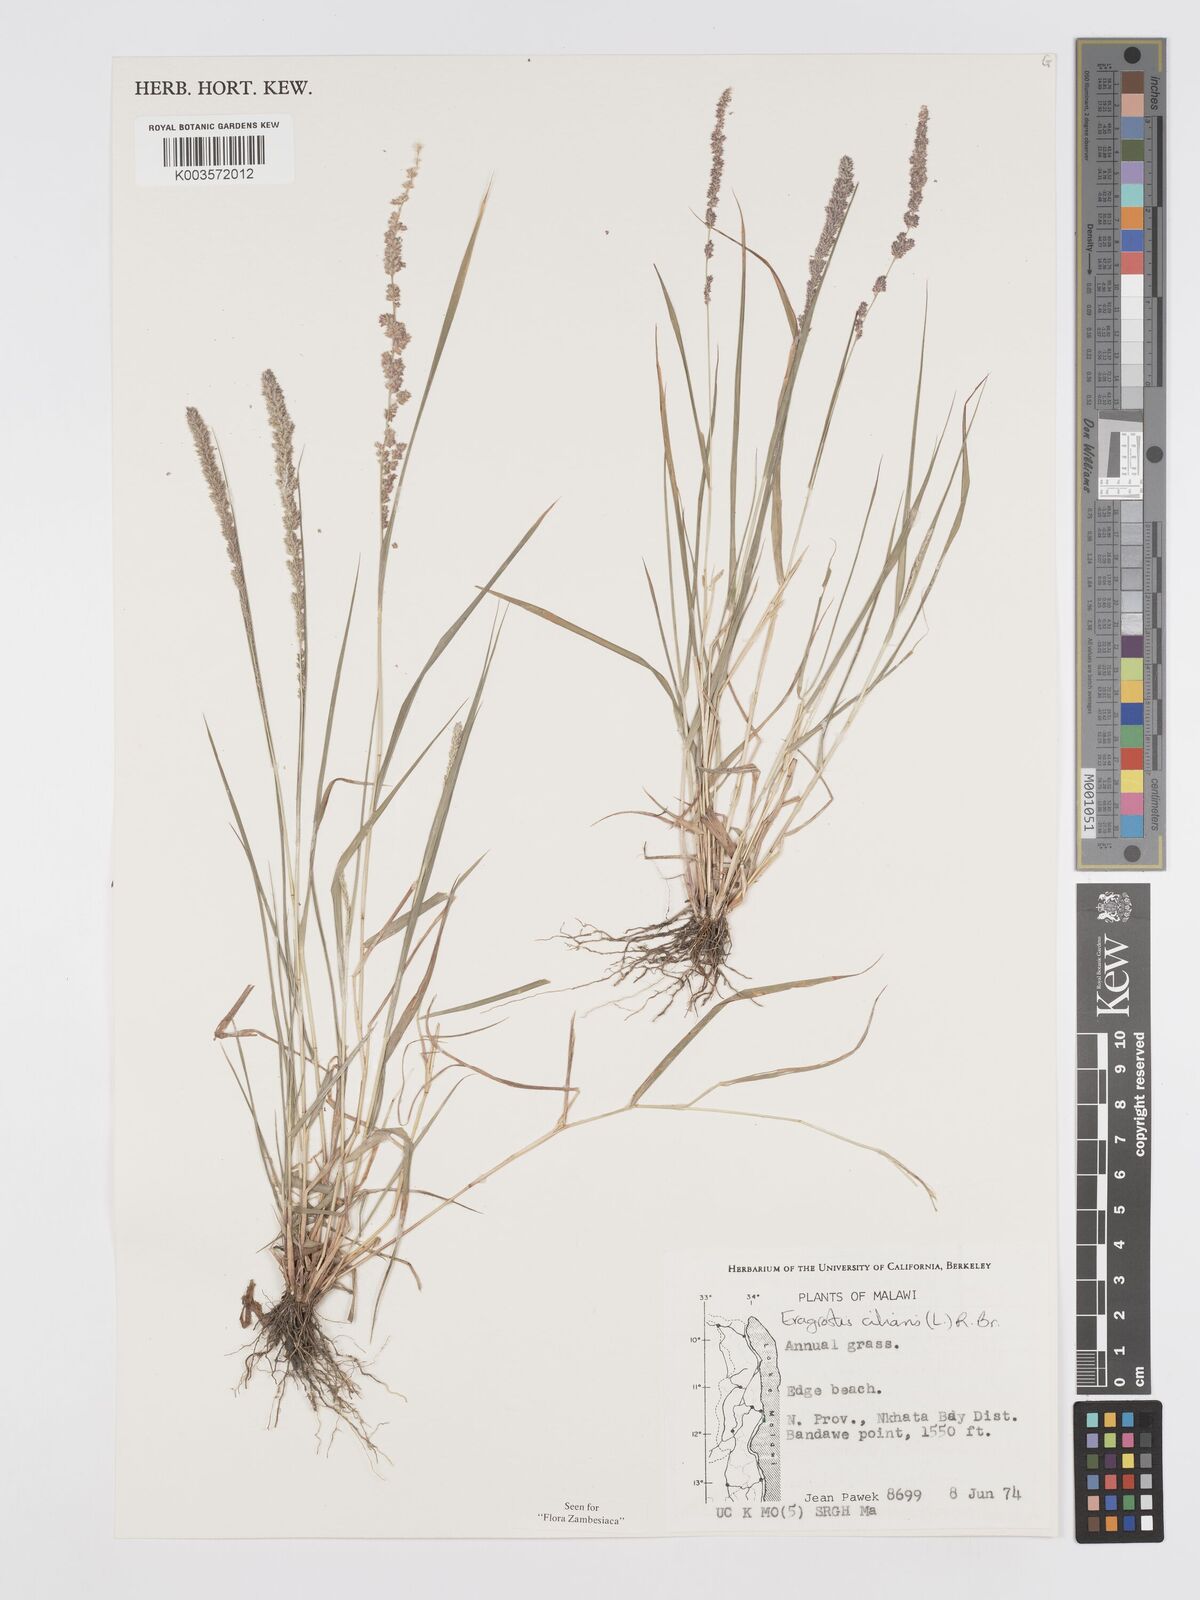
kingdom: Plantae
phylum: Tracheophyta
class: Liliopsida
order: Poales
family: Poaceae
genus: Eragrostis
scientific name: Eragrostis ciliaris
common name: Gophertail lovegrass
